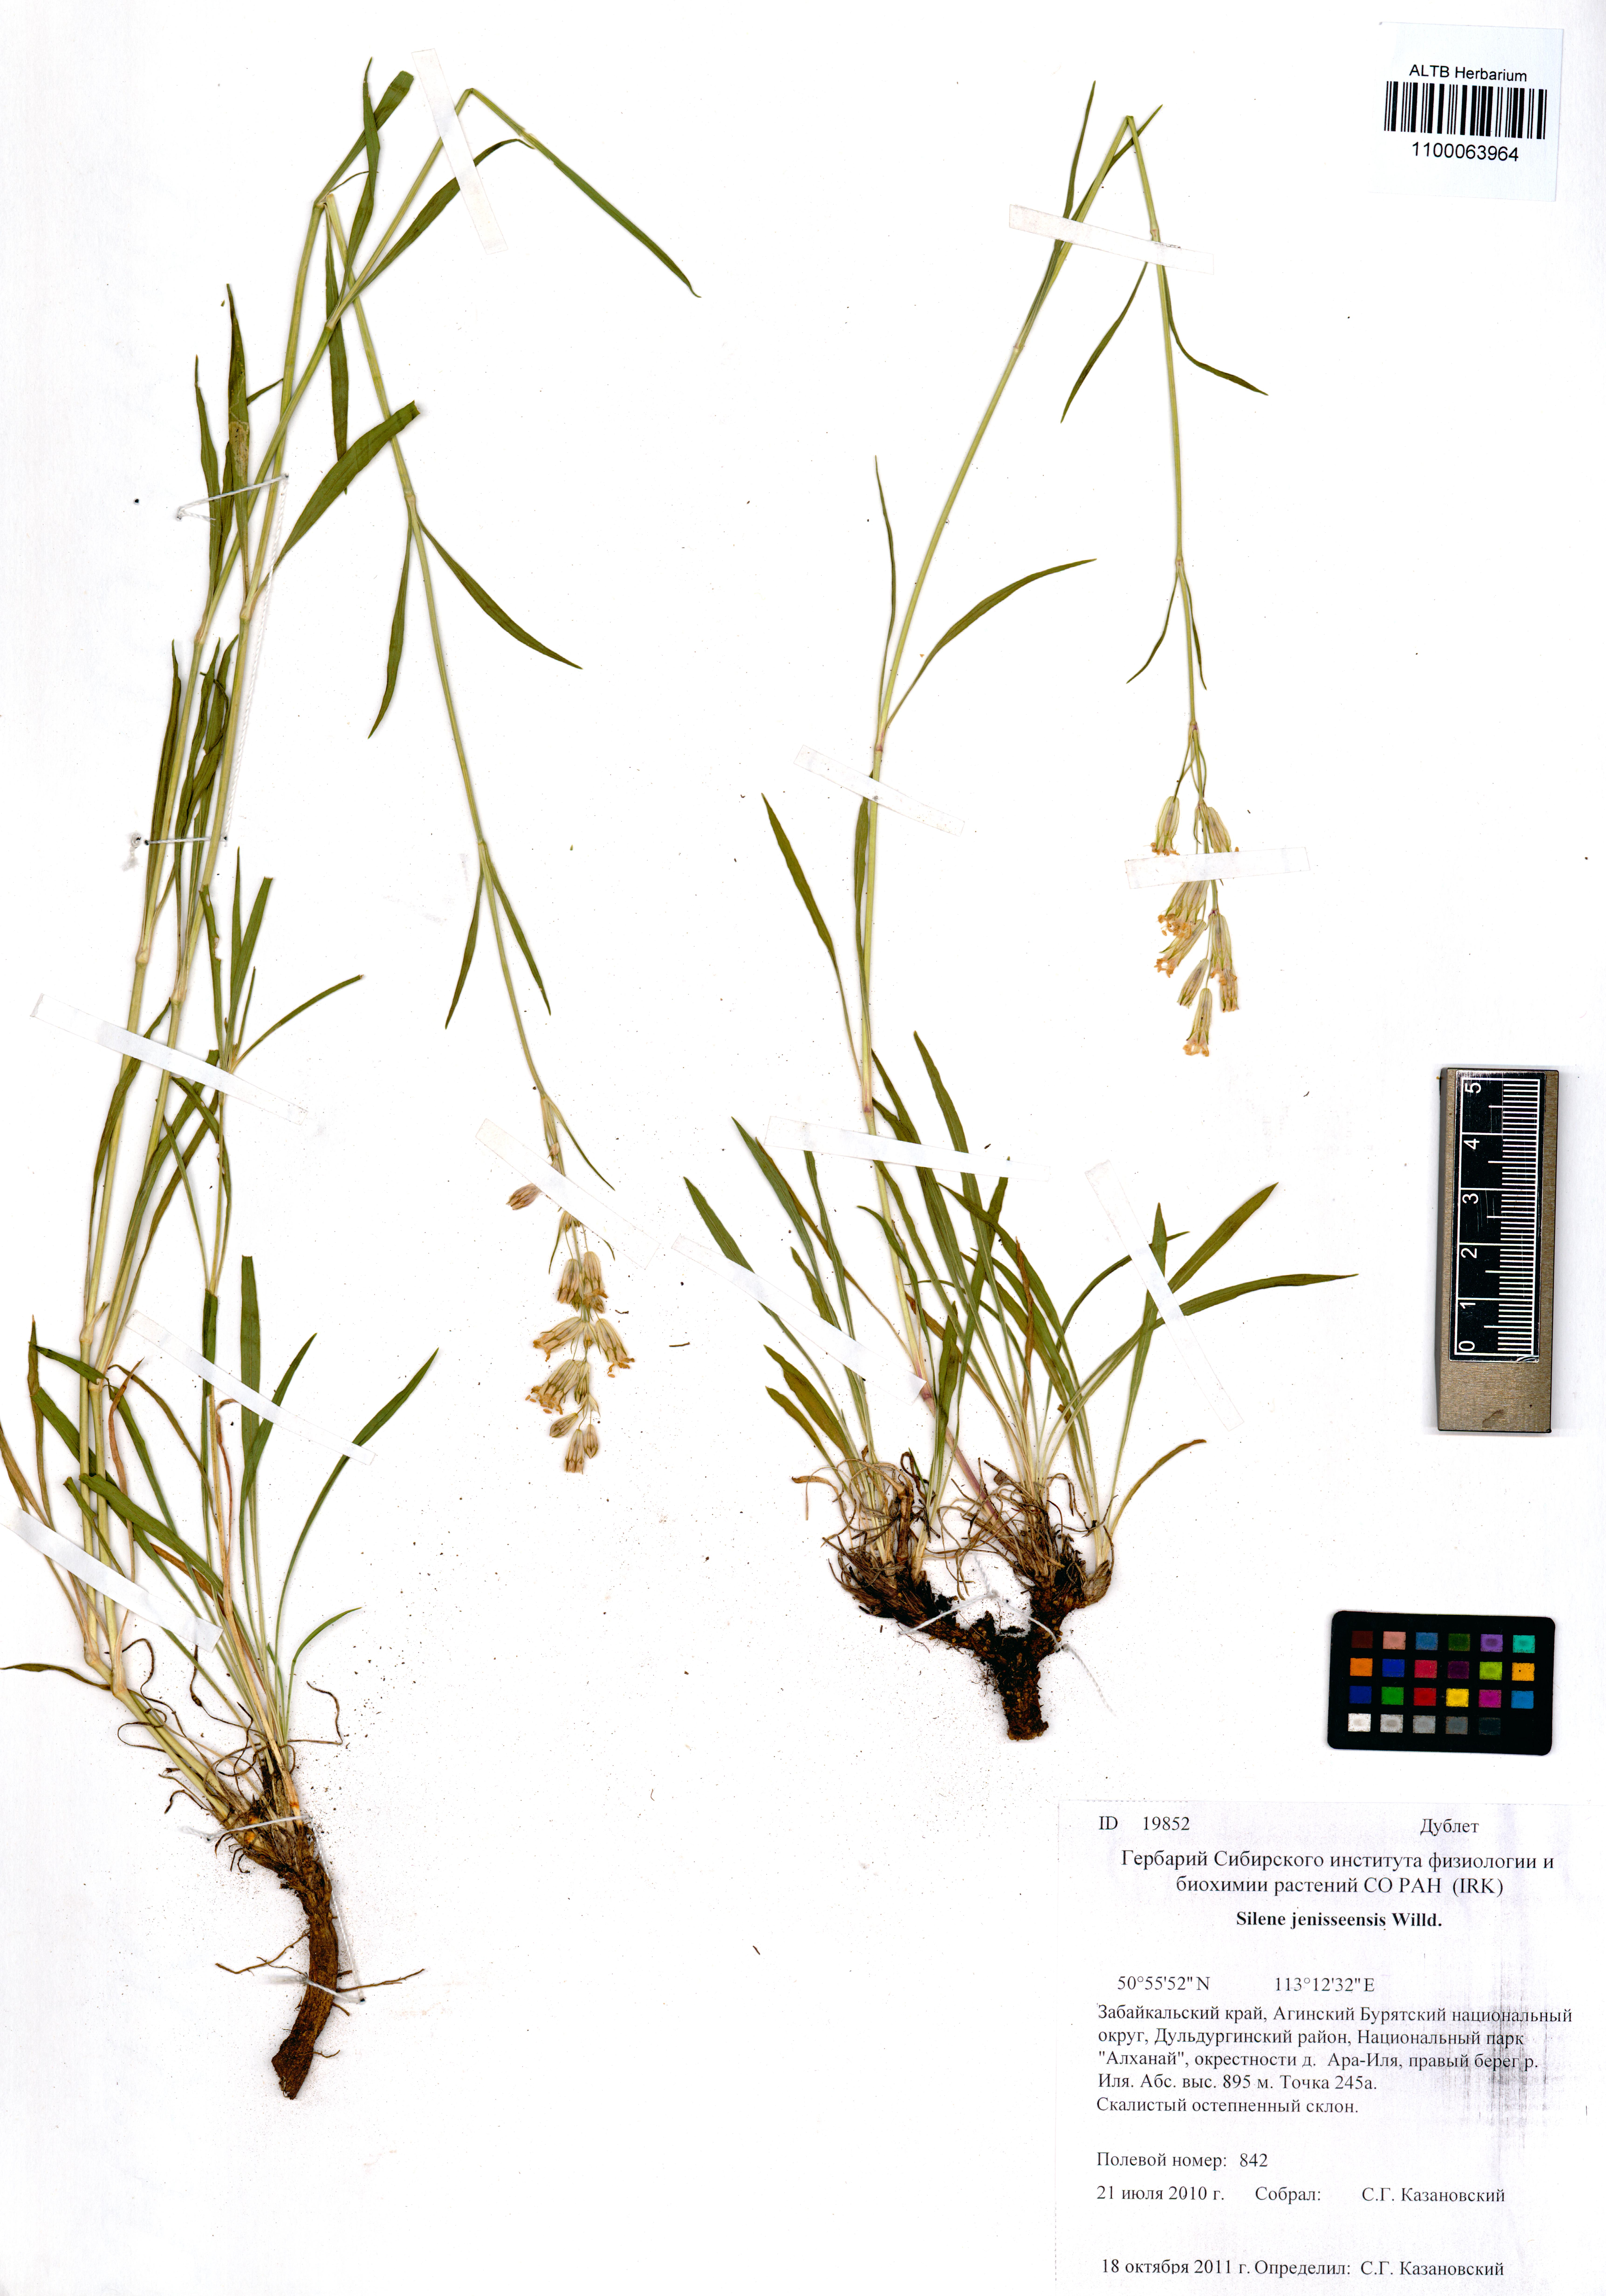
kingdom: Plantae
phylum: Tracheophyta
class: Magnoliopsida
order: Caryophyllales
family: Caryophyllaceae
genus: Silene
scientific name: Silene jeniseensis
